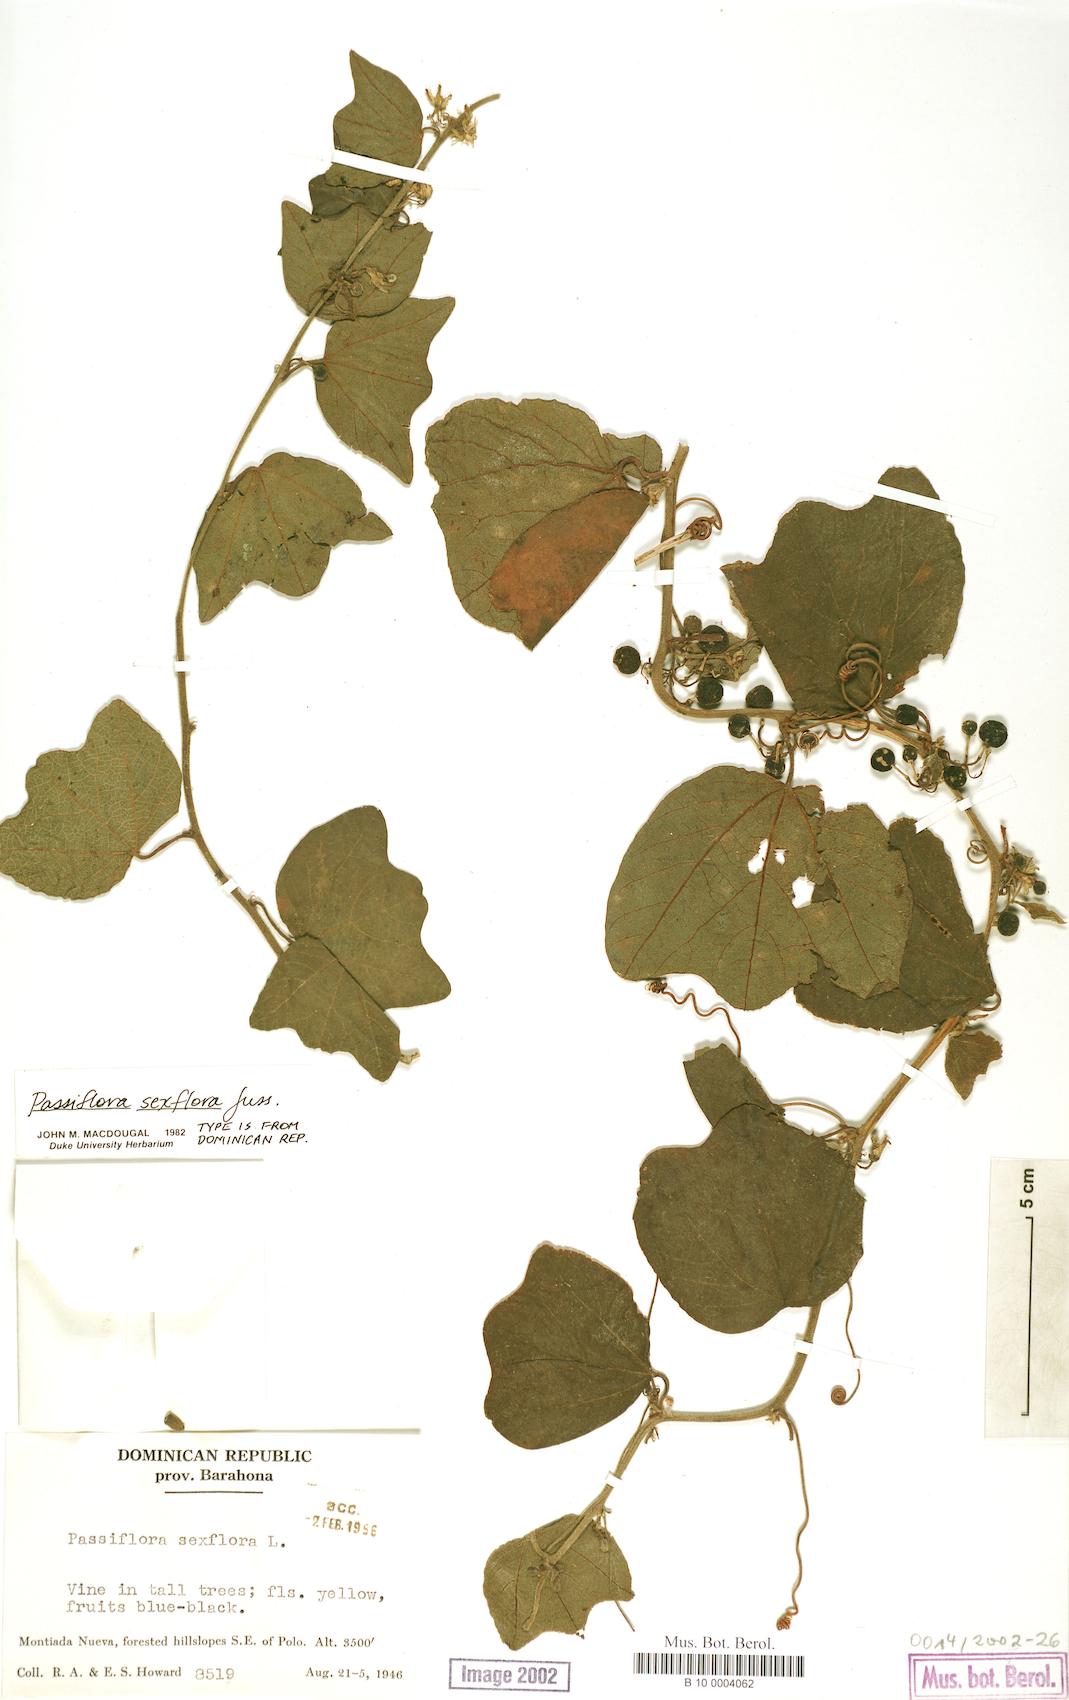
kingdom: Plantae
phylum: Tracheophyta
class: Magnoliopsida
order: Malpighiales
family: Passifloraceae
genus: Passiflora
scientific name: Passiflora sexflora
